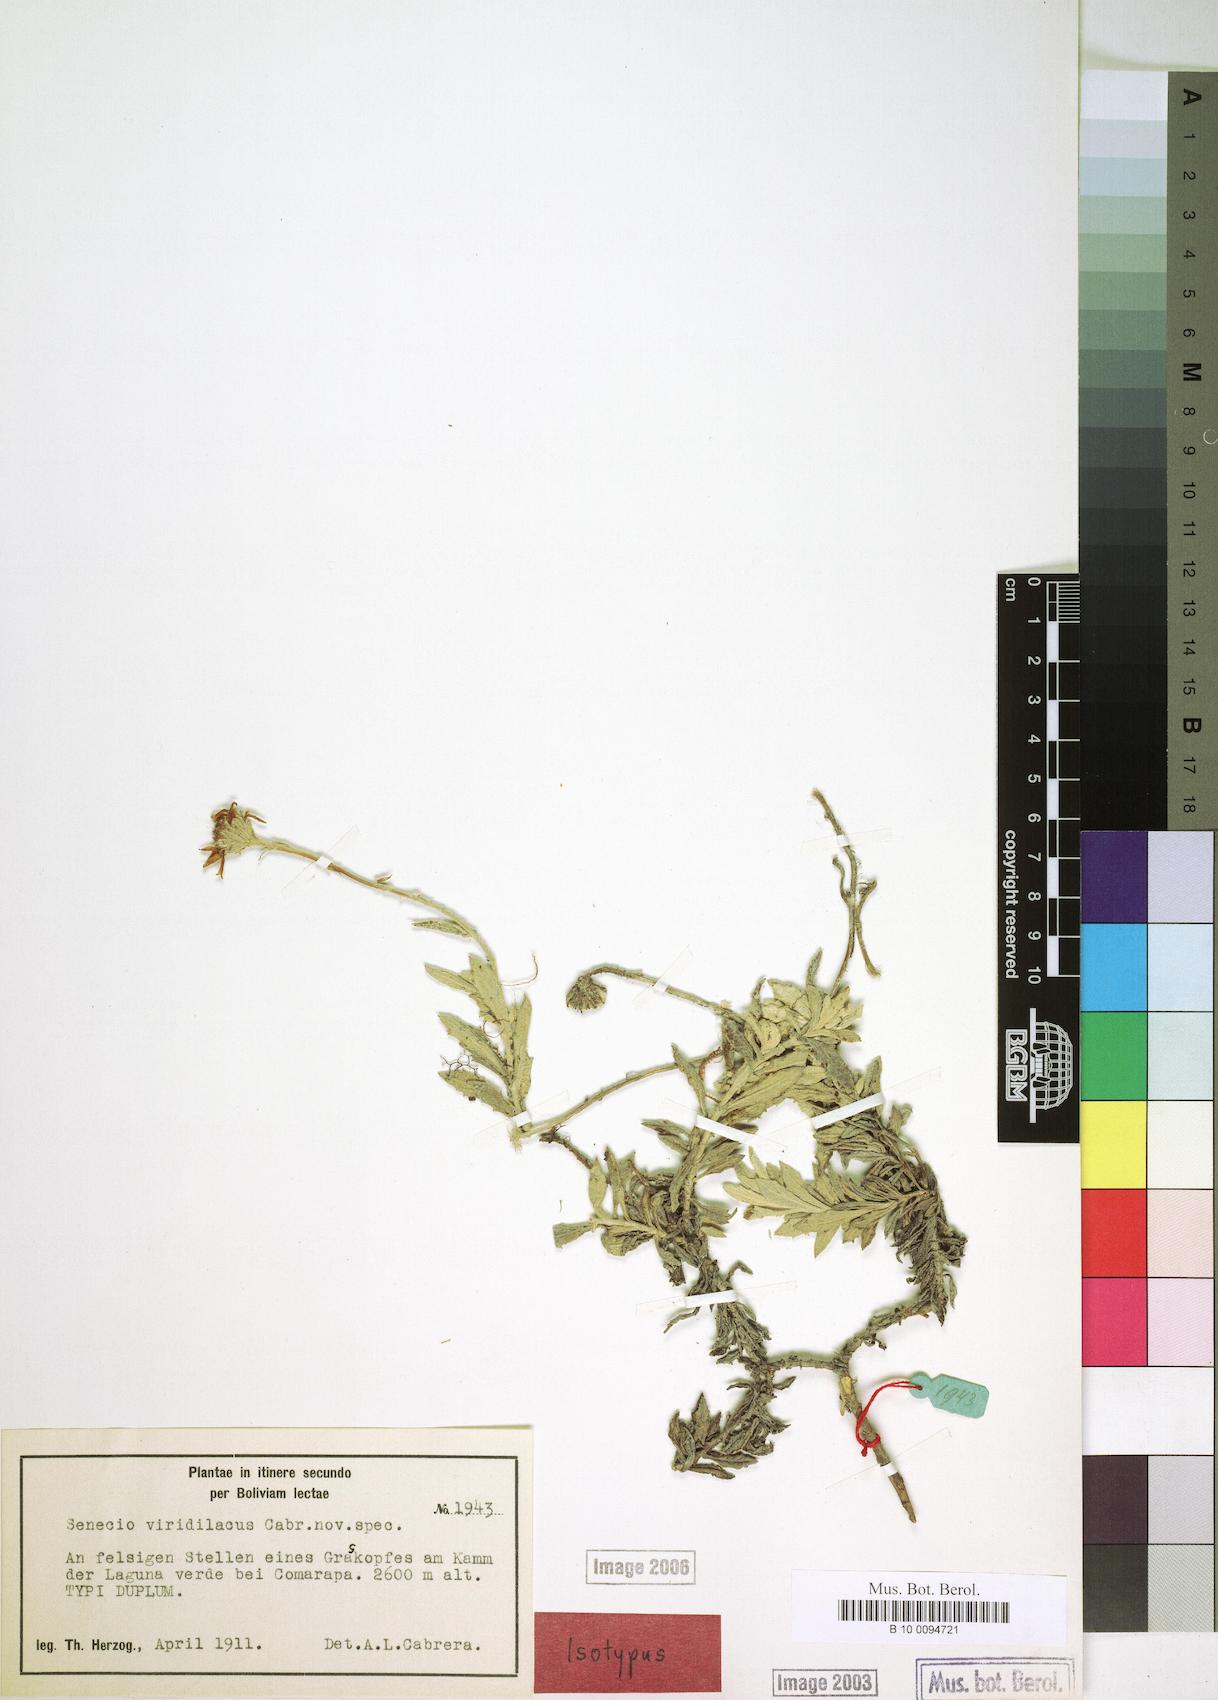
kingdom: Plantae
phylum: Tracheophyta
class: Magnoliopsida
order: Asterales
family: Asteraceae
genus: Senecio
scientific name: Senecio viridilacus
